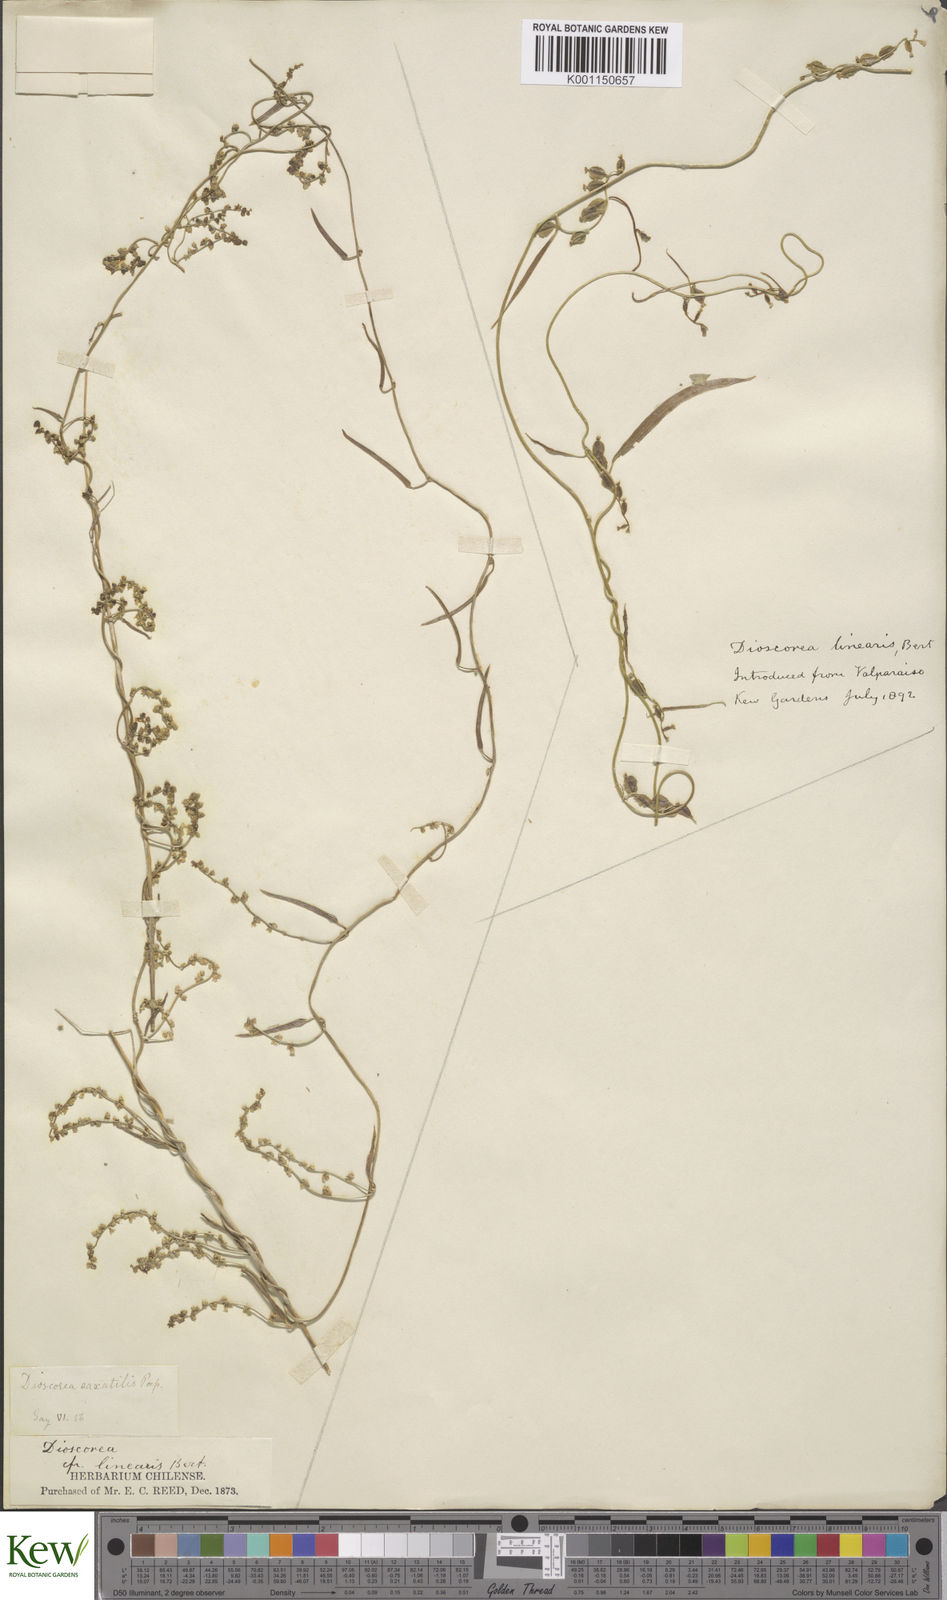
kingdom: Plantae
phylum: Tracheophyta
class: Liliopsida
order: Dioscoreales
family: Dioscoreaceae
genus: Dioscorea
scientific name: Dioscorea saxatilis
